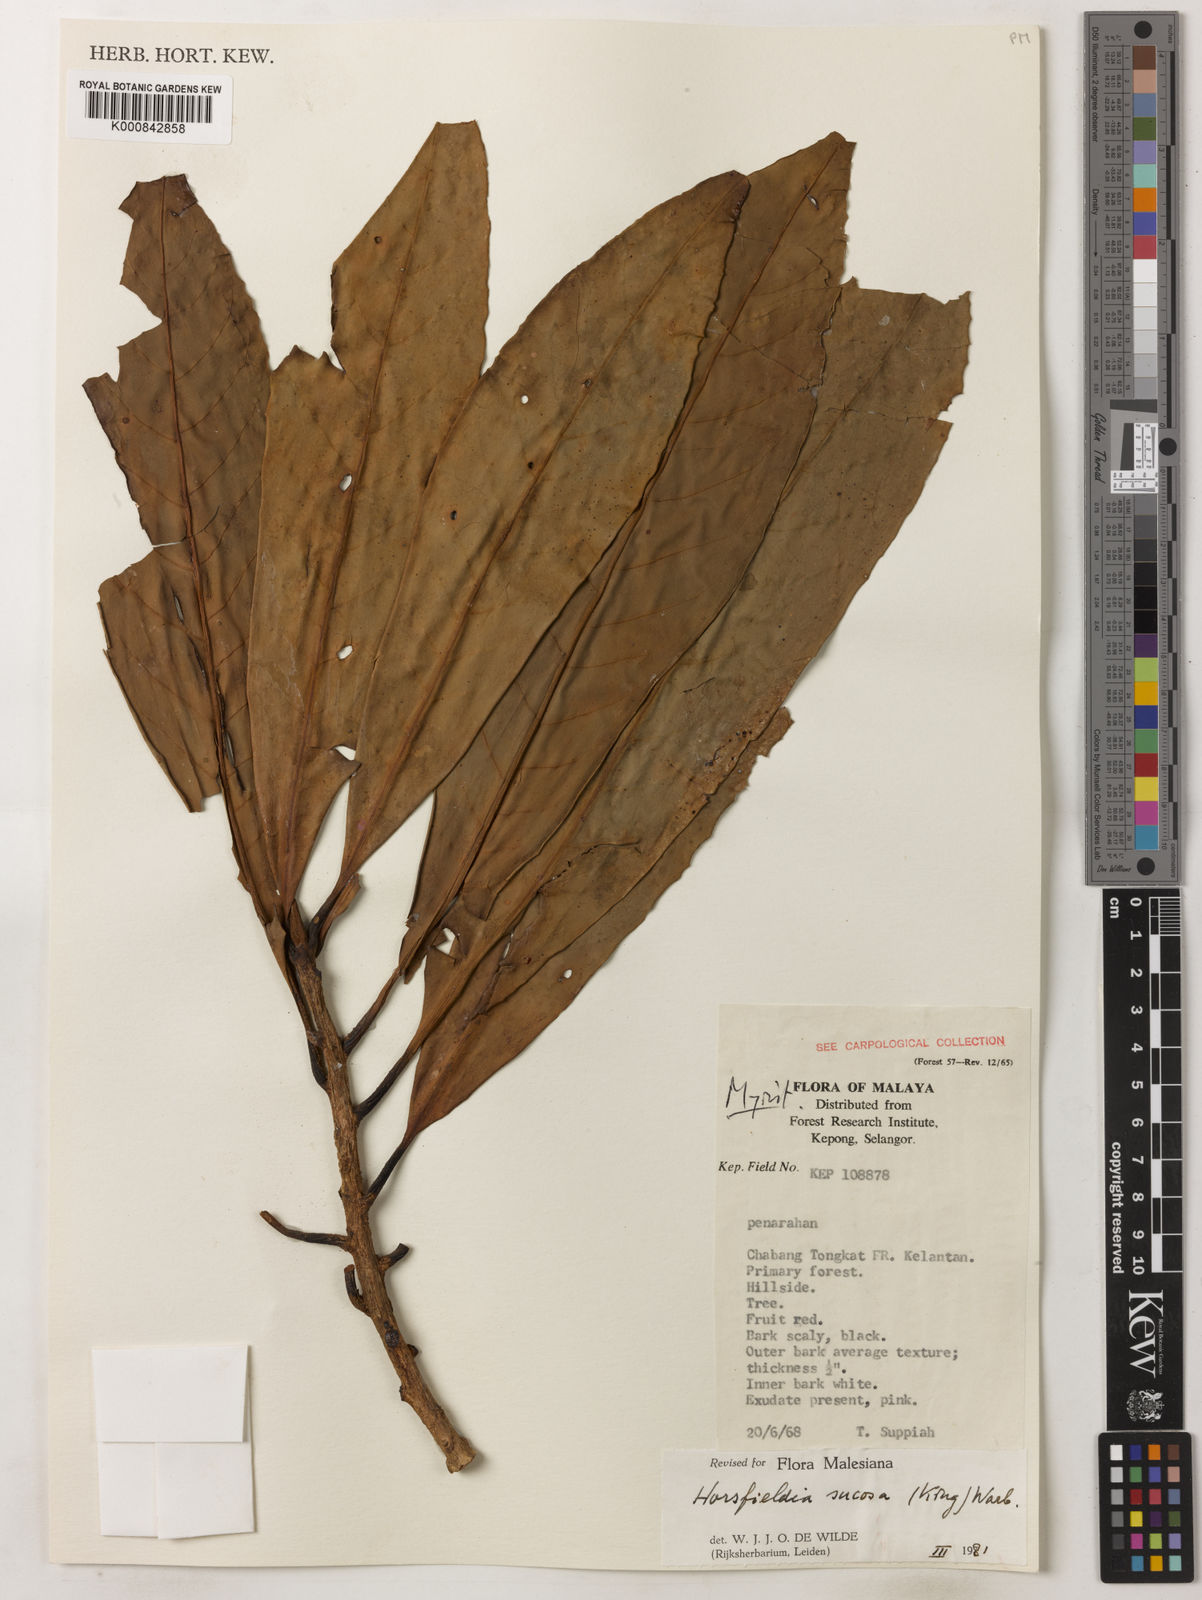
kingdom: Plantae
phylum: Tracheophyta
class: Magnoliopsida
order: Magnoliales
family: Myristicaceae
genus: Horsfieldia
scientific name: Horsfieldia sucosa
